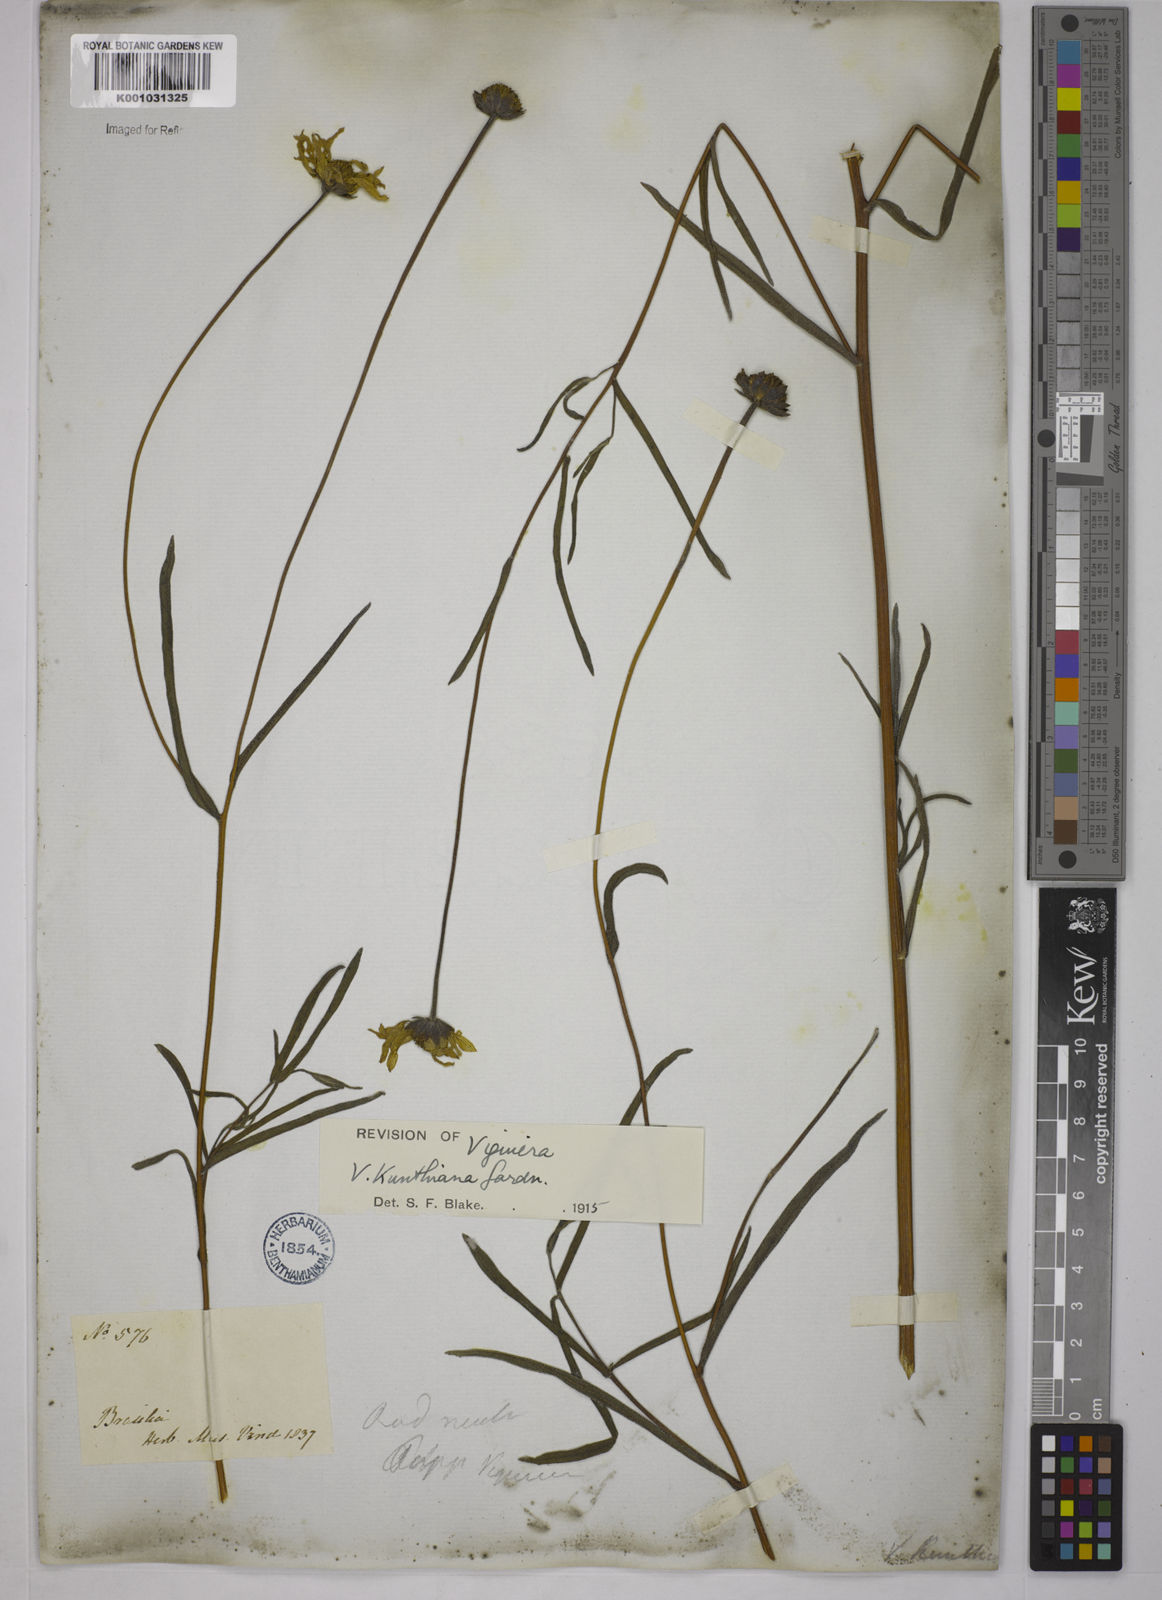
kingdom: Plantae
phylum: Tracheophyta
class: Magnoliopsida
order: Asterales
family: Asteraceae
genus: Aldama
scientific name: Aldama kunthiana
